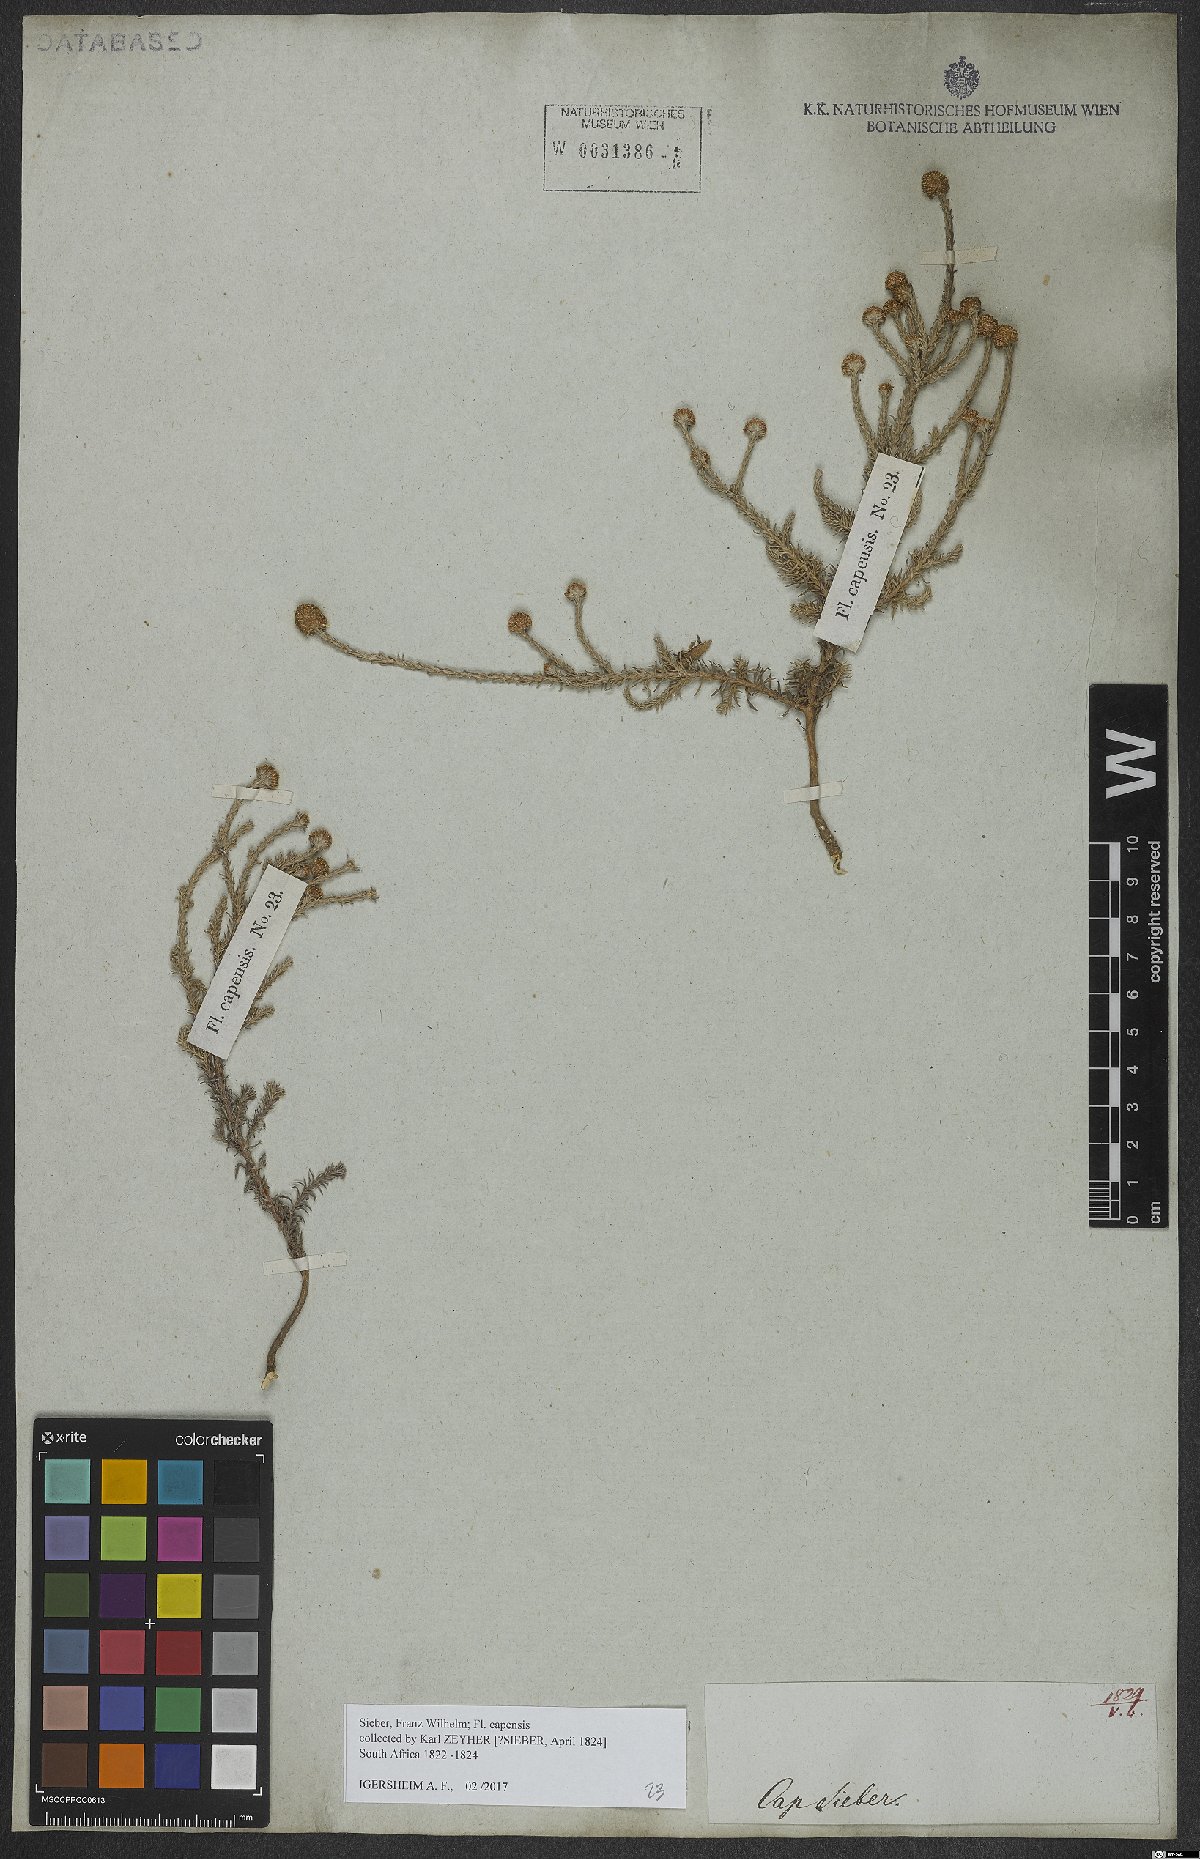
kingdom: Plantae
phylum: Tracheophyta
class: Magnoliopsida
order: Asterales
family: Asteraceae
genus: Stoebe
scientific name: Stoebe capitata
